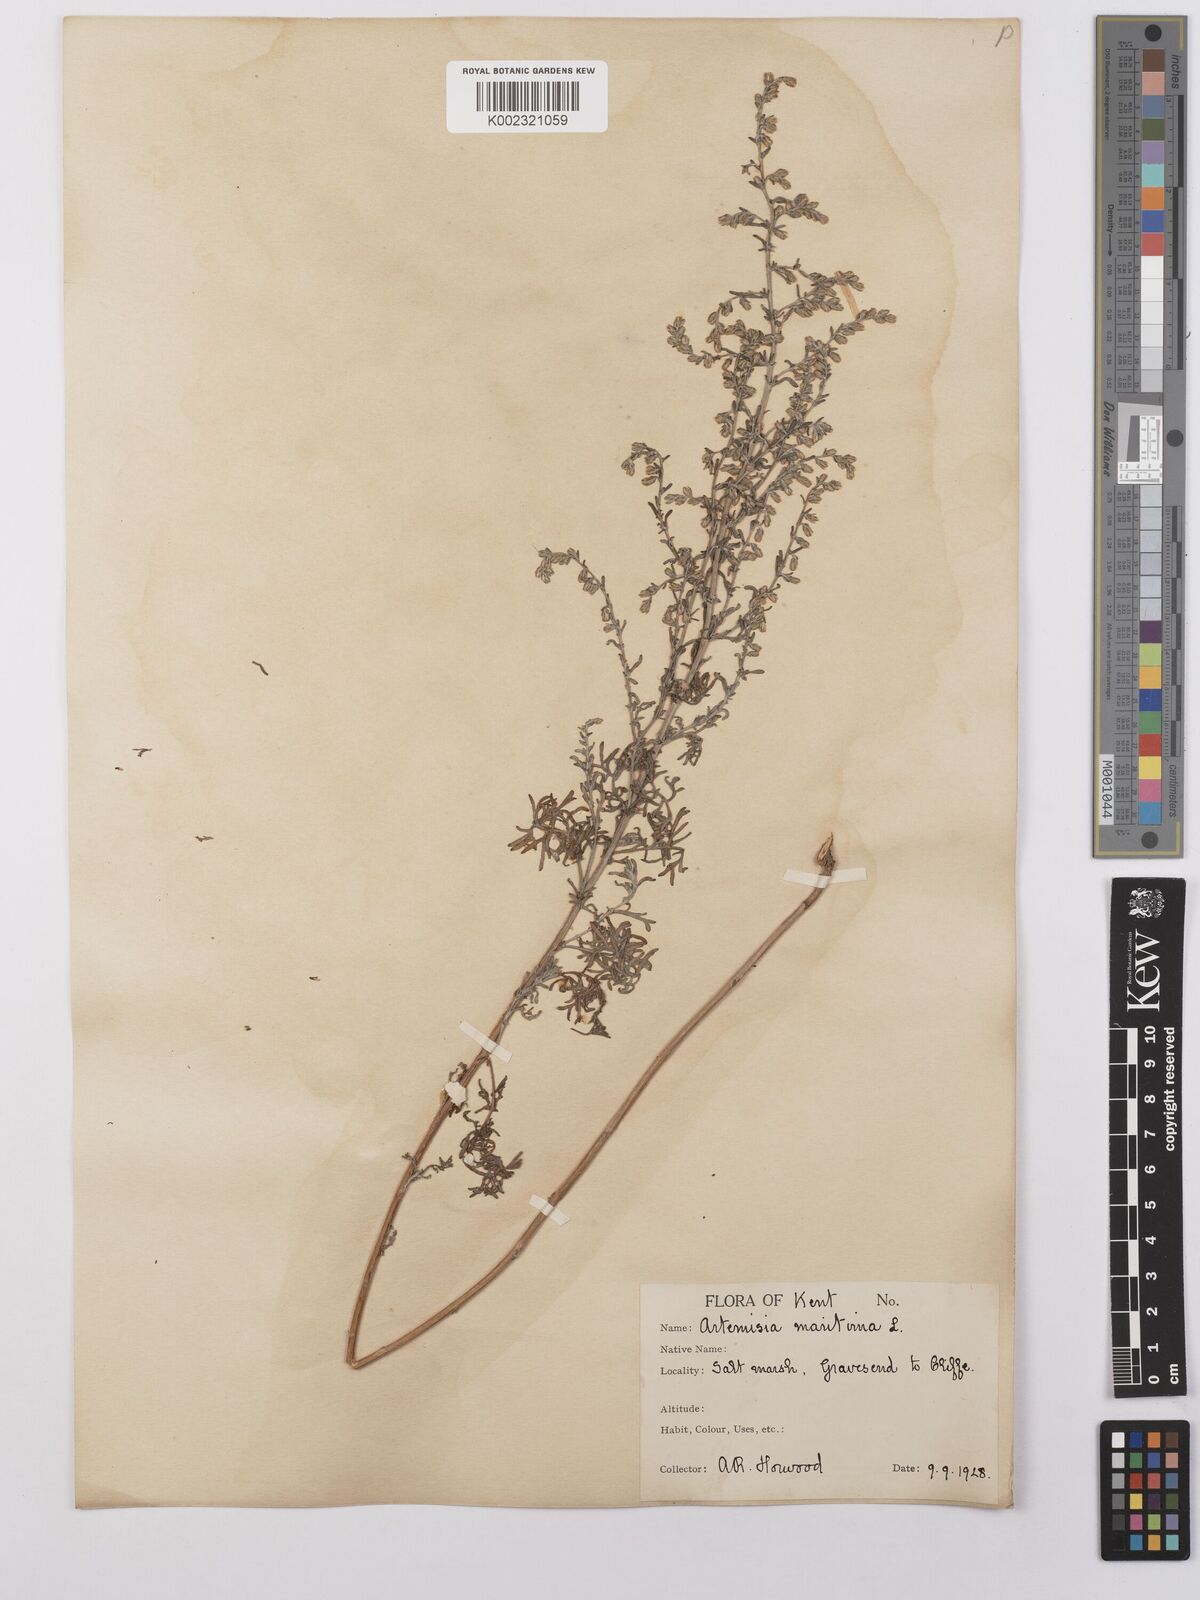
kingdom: Plantae
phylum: Tracheophyta
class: Magnoliopsida
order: Asterales
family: Asteraceae
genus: Artemisia
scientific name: Artemisia maritima
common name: Wormseed
